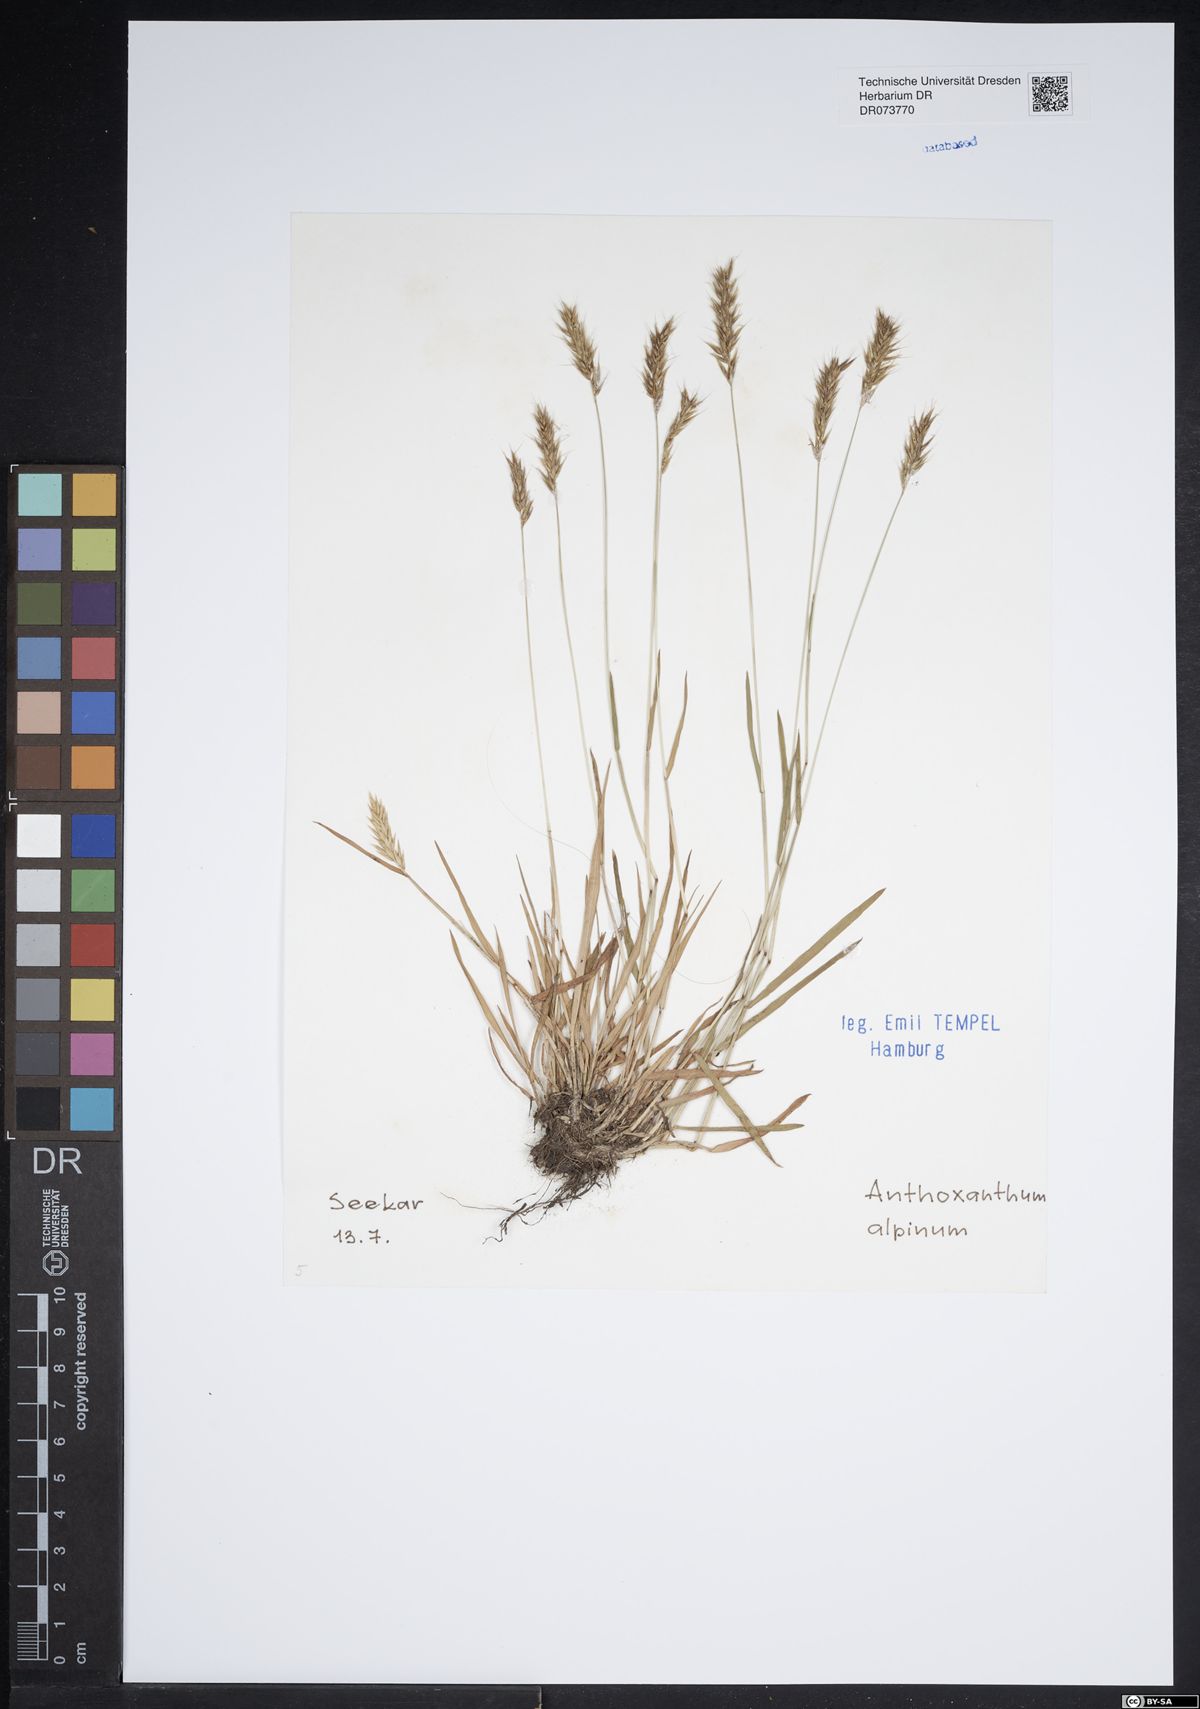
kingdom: Plantae
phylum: Tracheophyta
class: Liliopsida
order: Poales
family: Poaceae
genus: Anthoxanthum
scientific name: Anthoxanthum nipponicum
